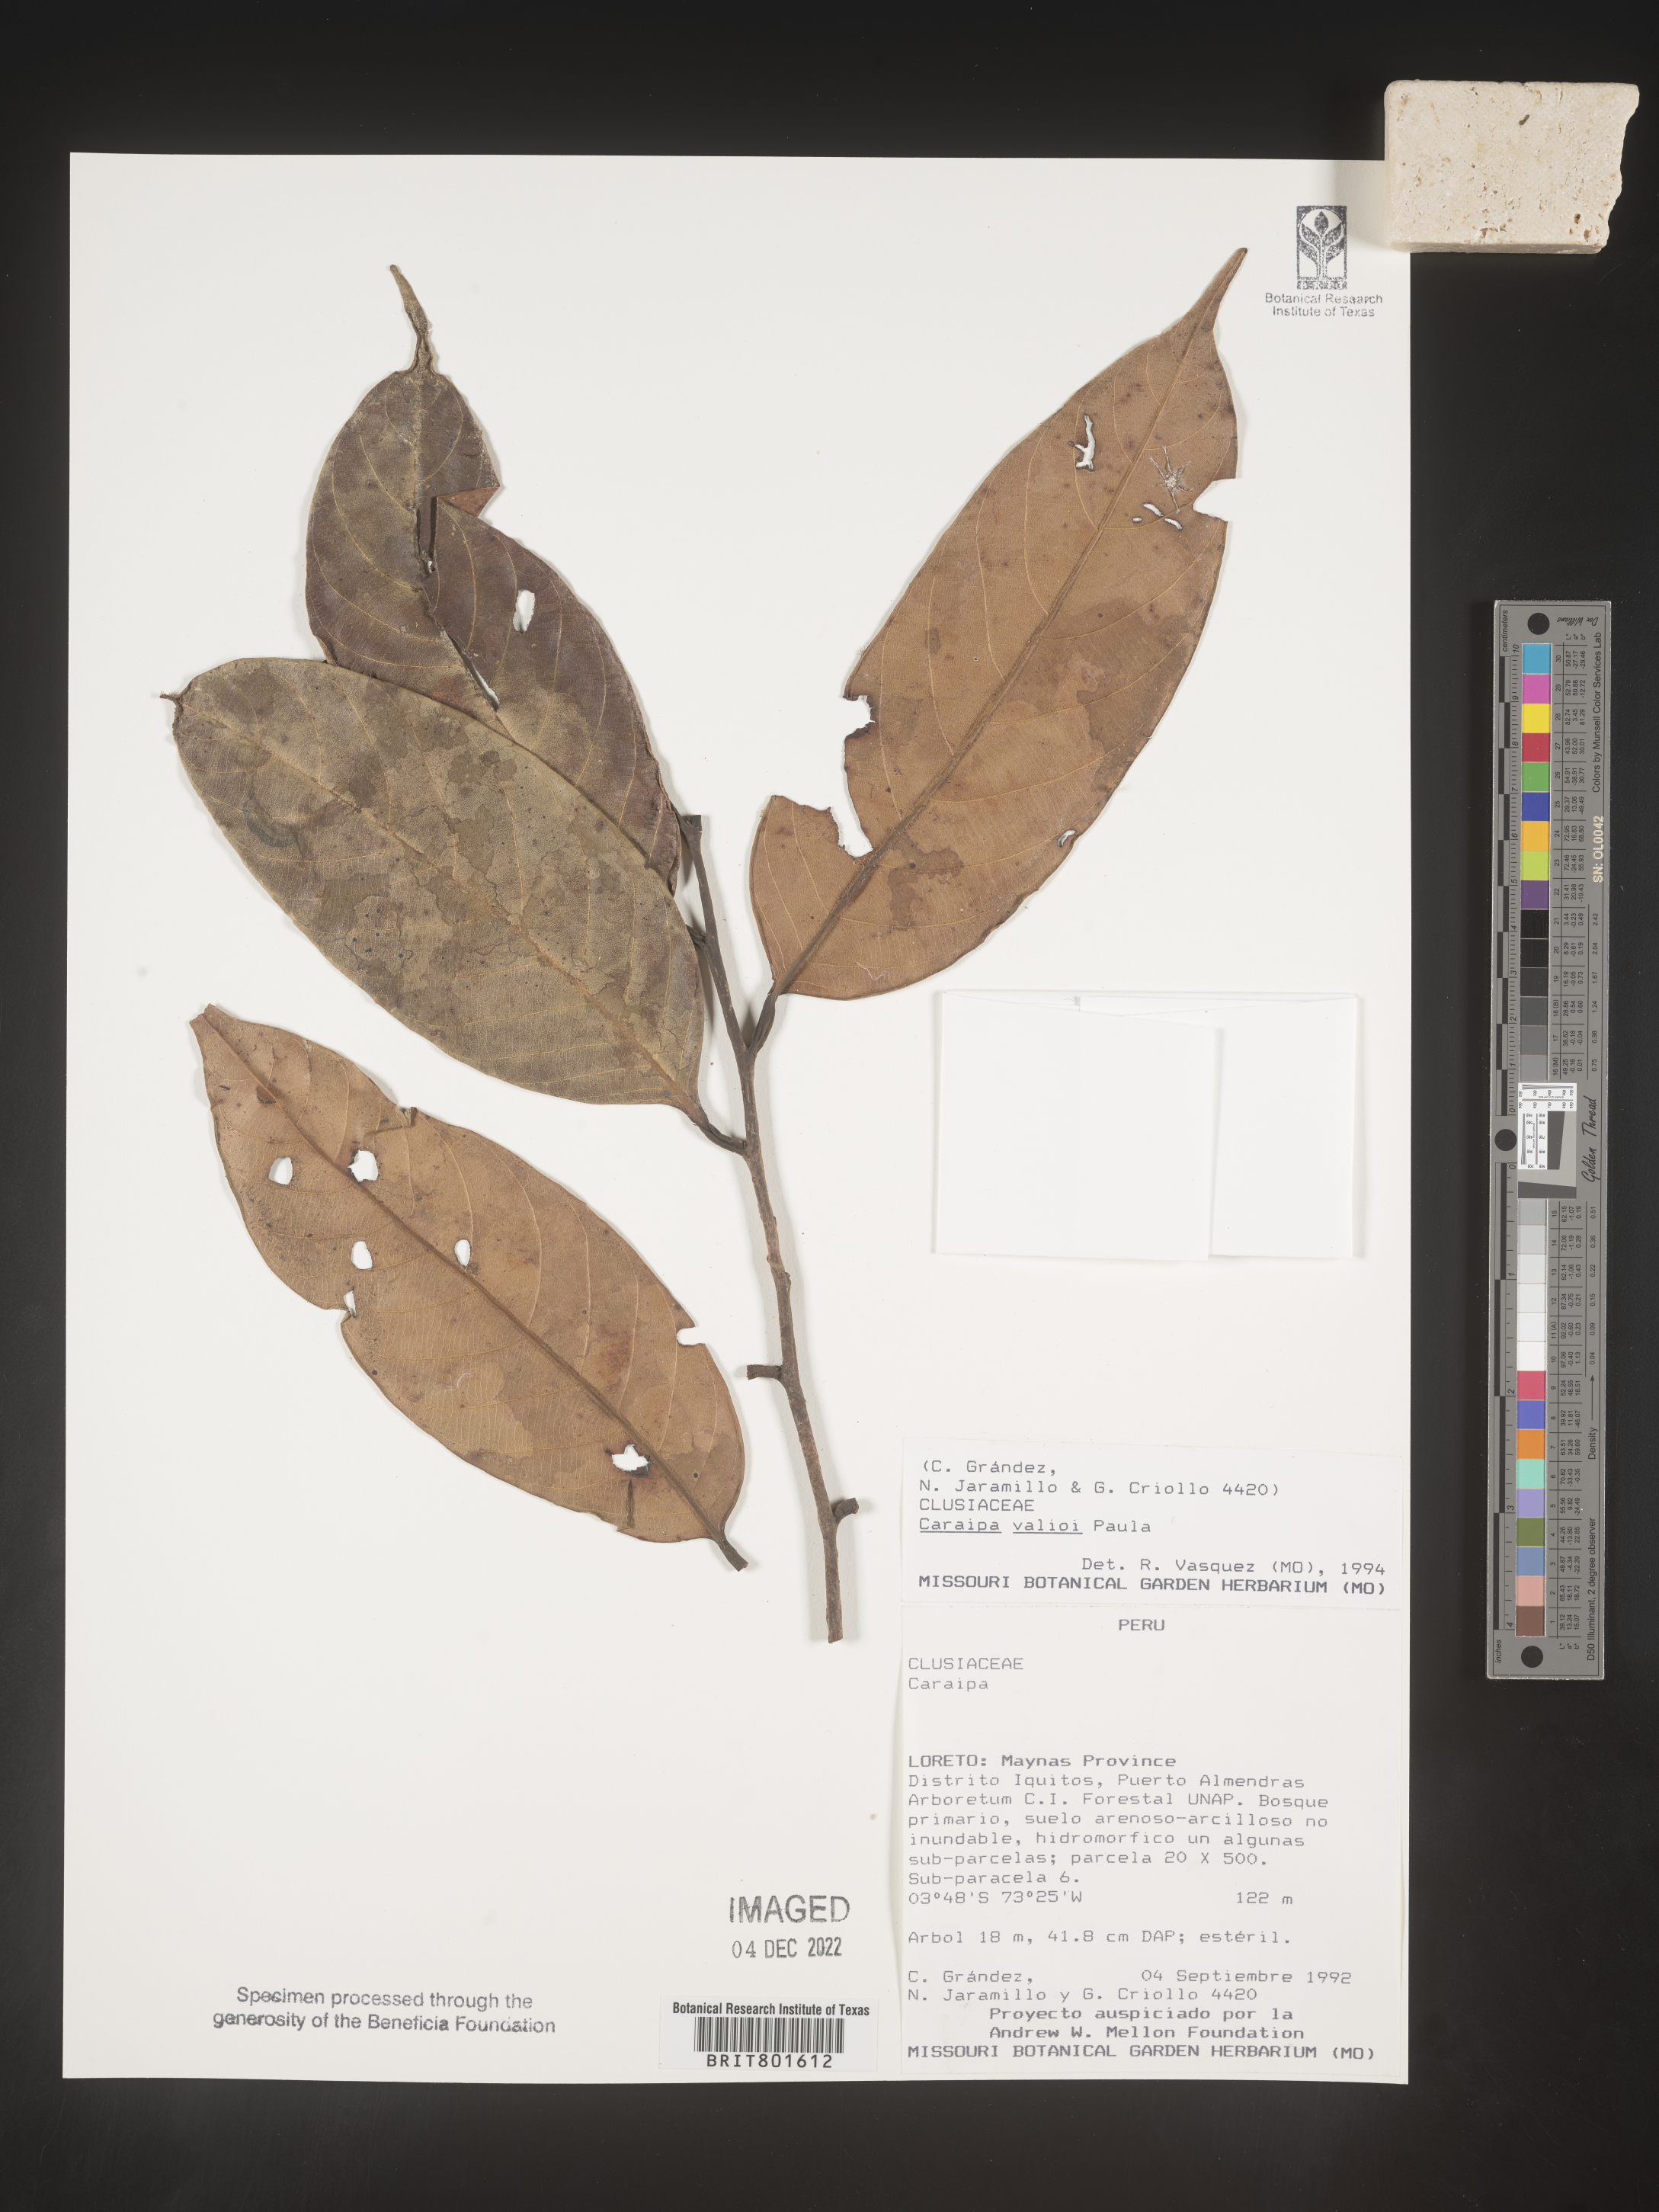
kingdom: Plantae
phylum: Tracheophyta
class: Magnoliopsida
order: Malpighiales
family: Calophyllaceae
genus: Caraipa
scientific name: Caraipa valioi
